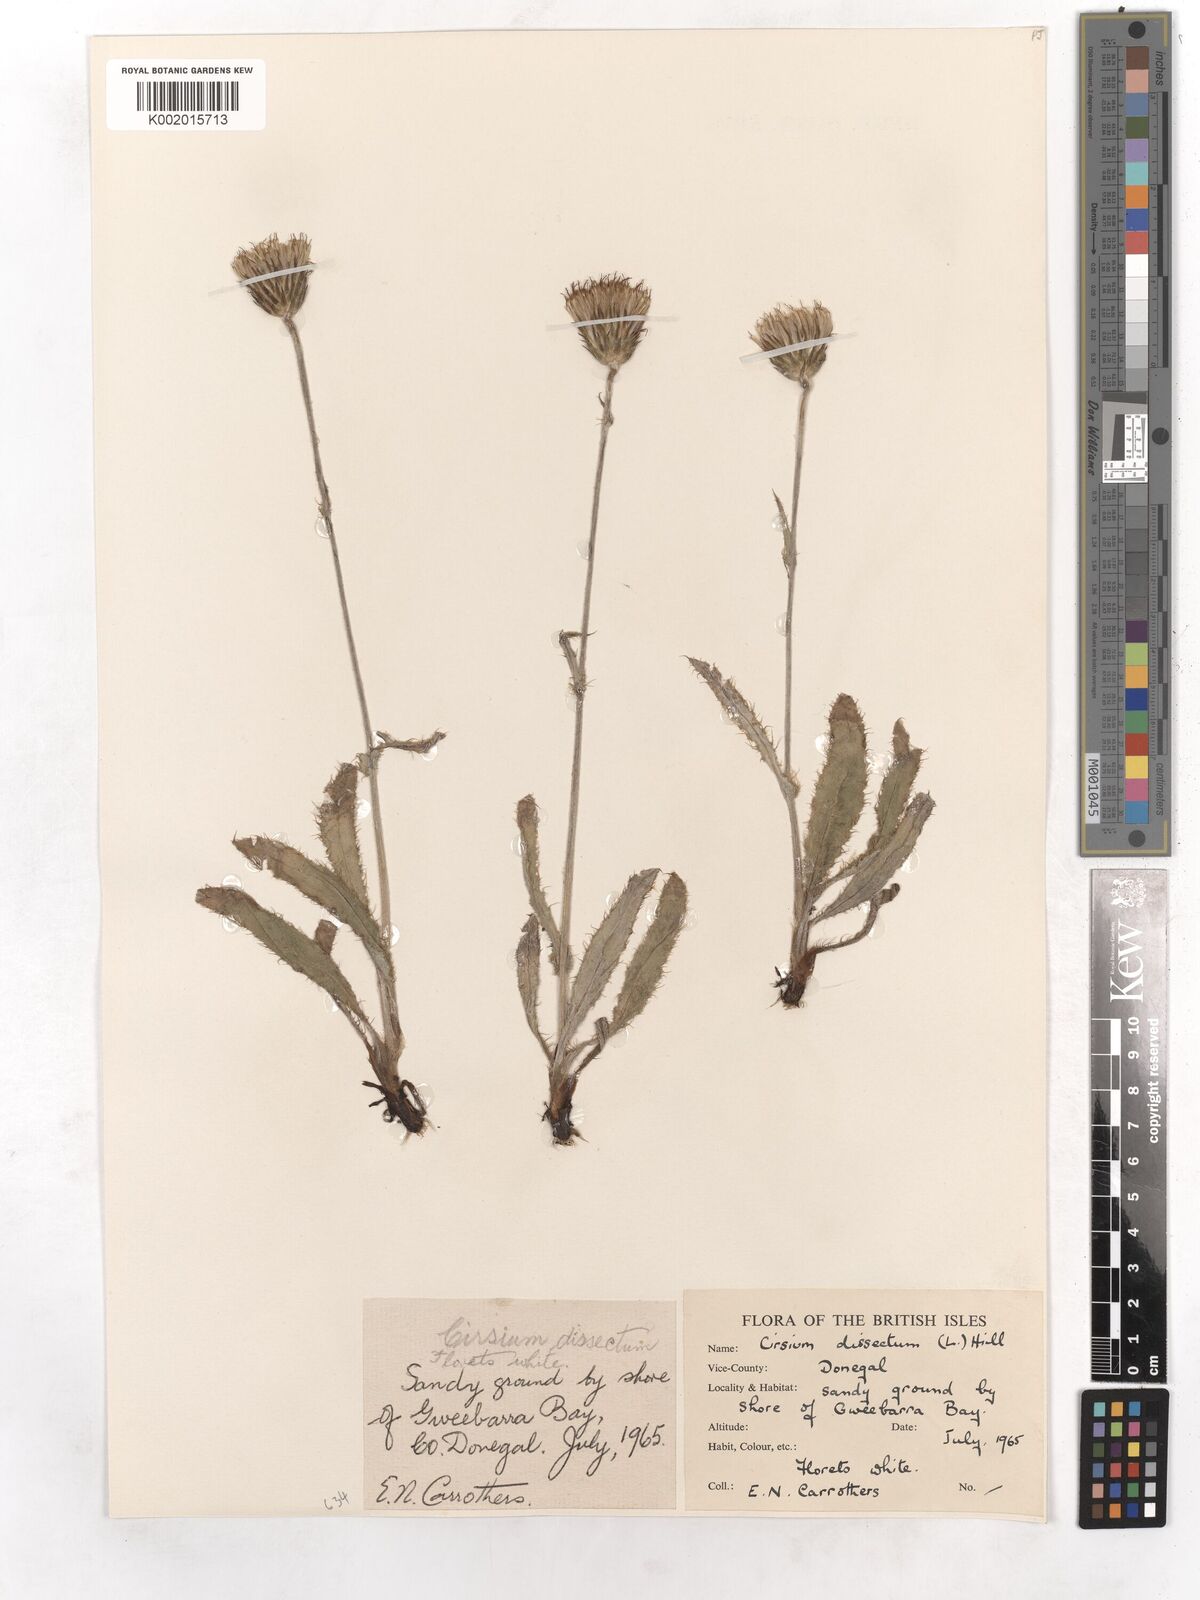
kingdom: Plantae
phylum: Tracheophyta
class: Magnoliopsida
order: Asterales
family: Asteraceae
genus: Cirsium
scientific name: Cirsium dissectum
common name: Meadow thistle
